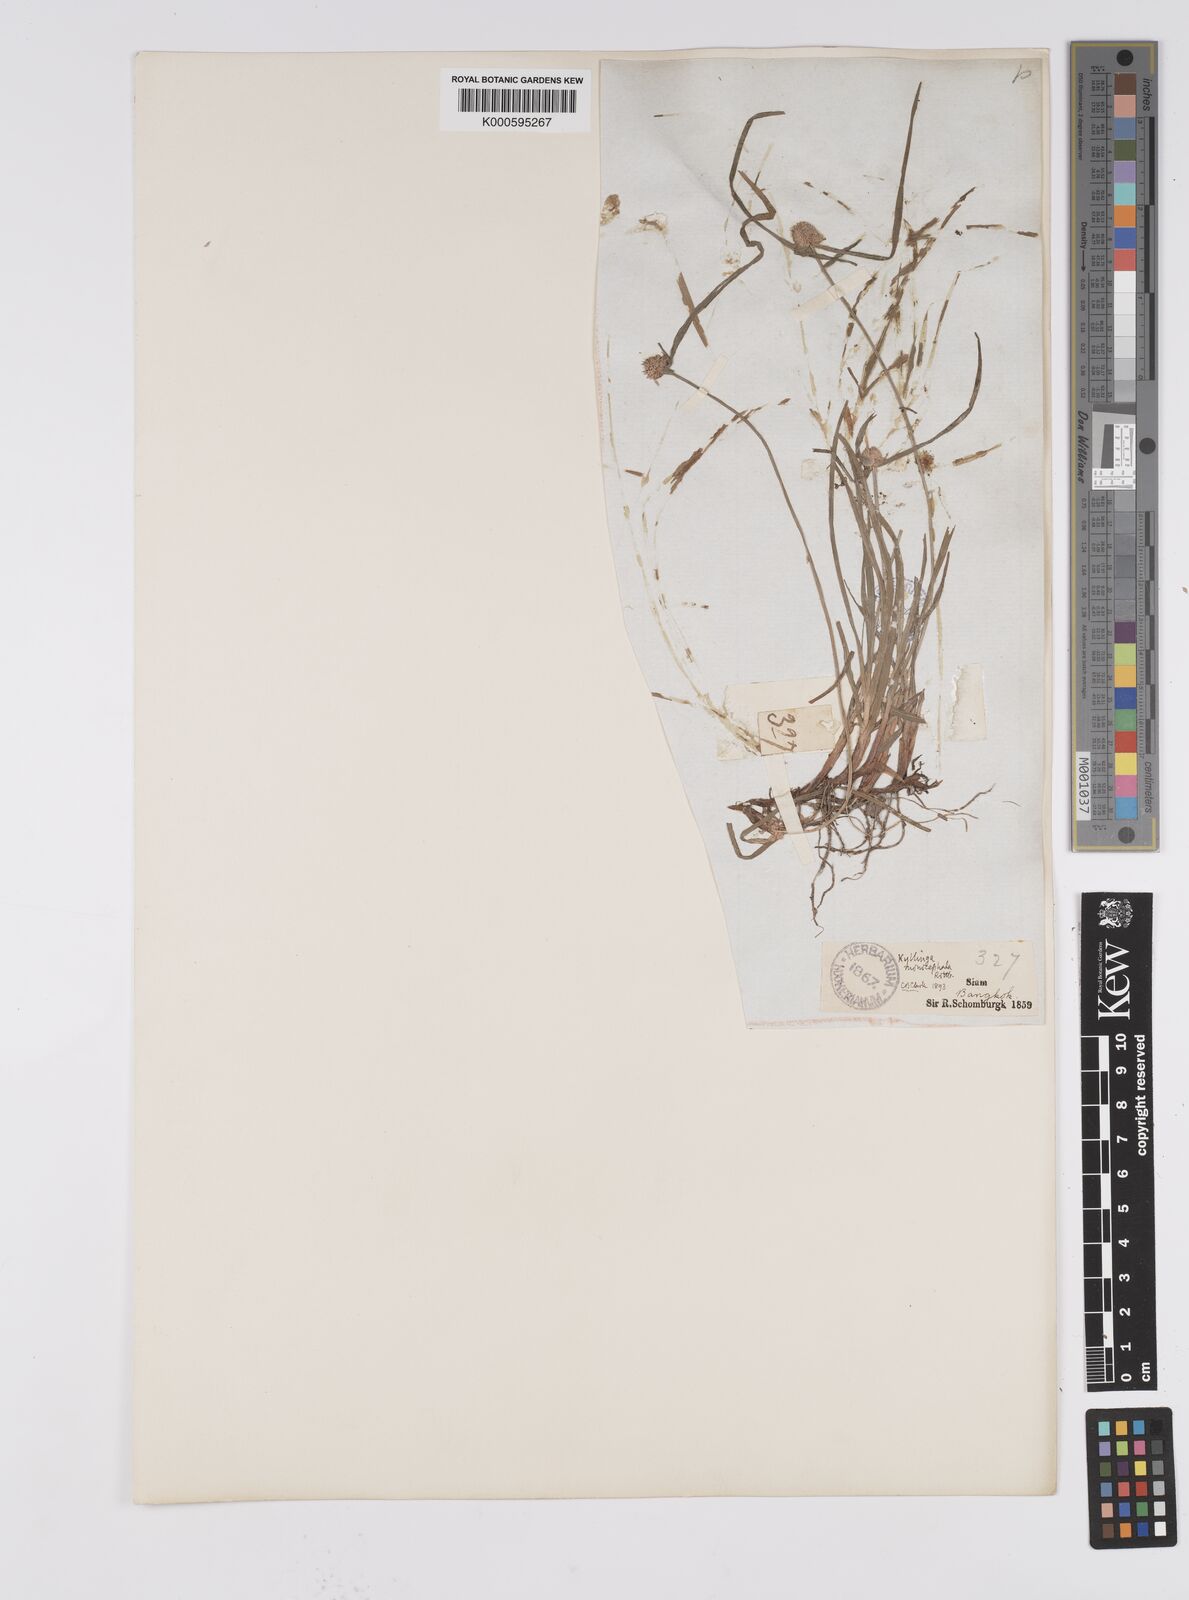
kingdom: Plantae
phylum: Tracheophyta
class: Liliopsida
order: Poales
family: Cyperaceae
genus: Cyperus
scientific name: Cyperus mindorensis
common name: Flatsedge
